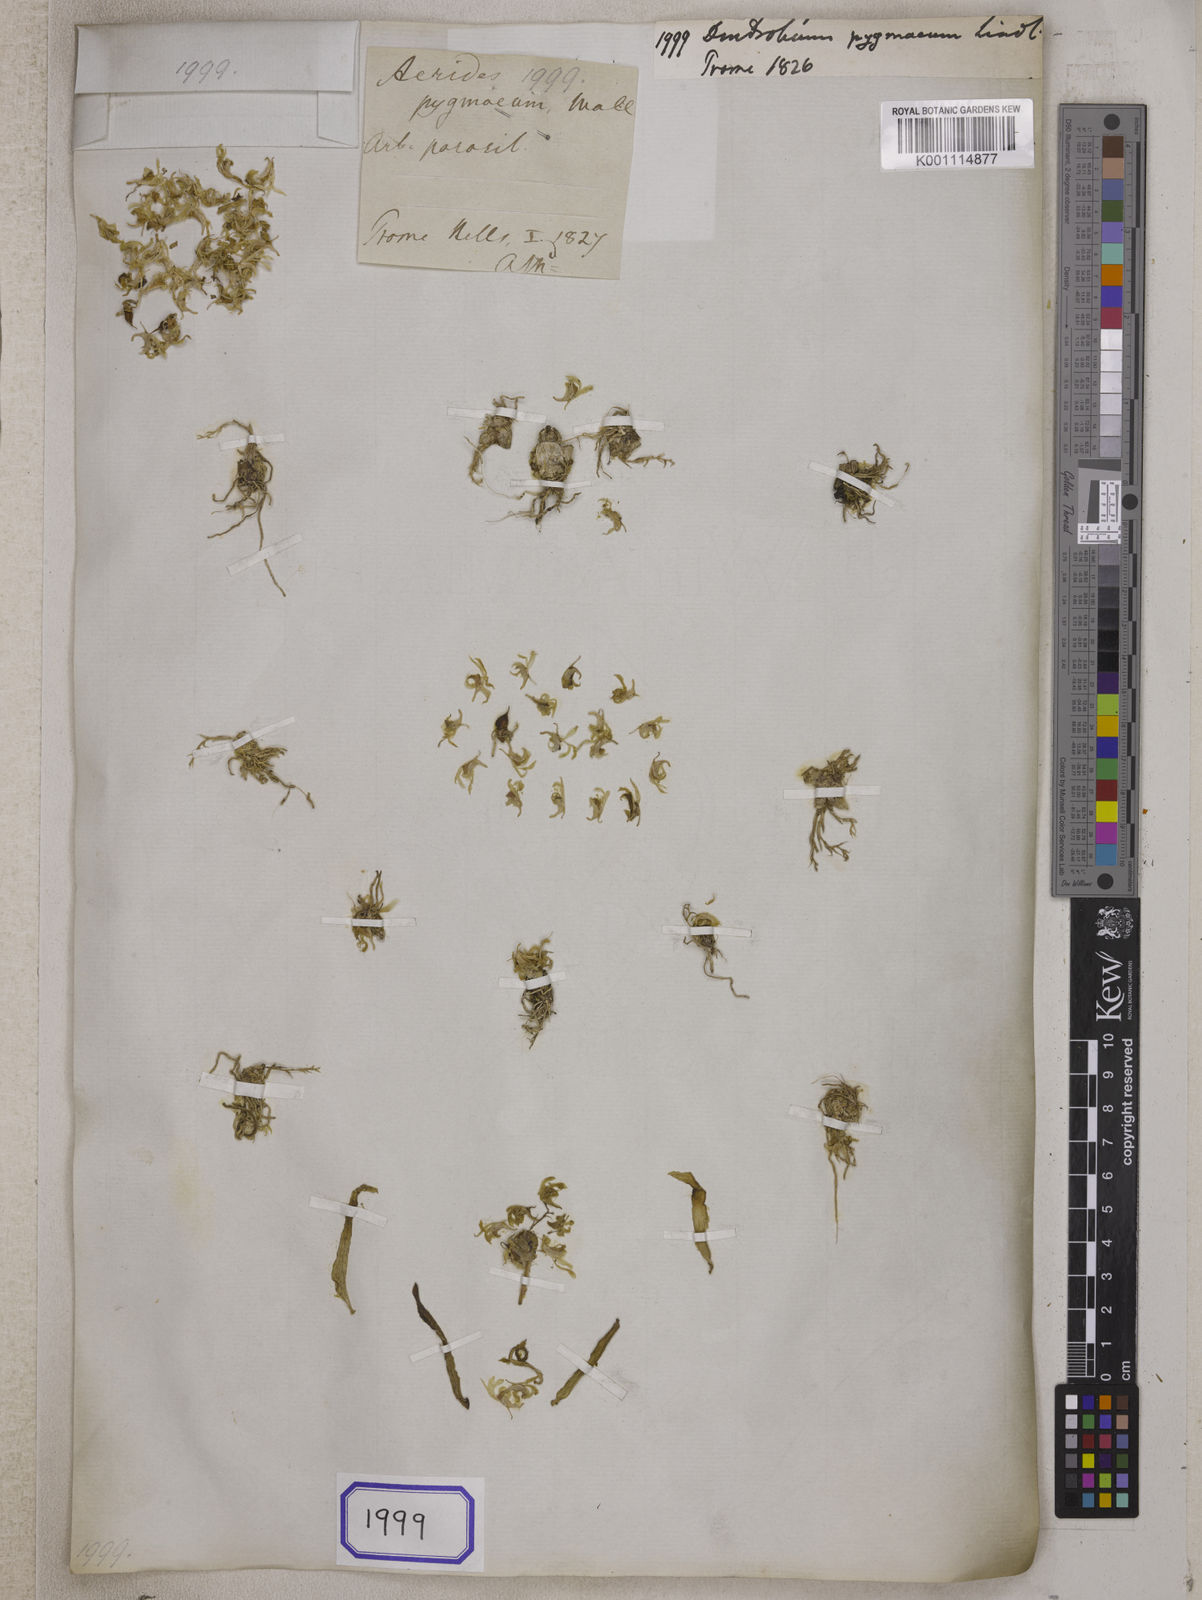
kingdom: Plantae
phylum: Tracheophyta
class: Liliopsida
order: Asparagales
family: Orchidaceae
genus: Dendrobium
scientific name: Dendrobium peguanum
